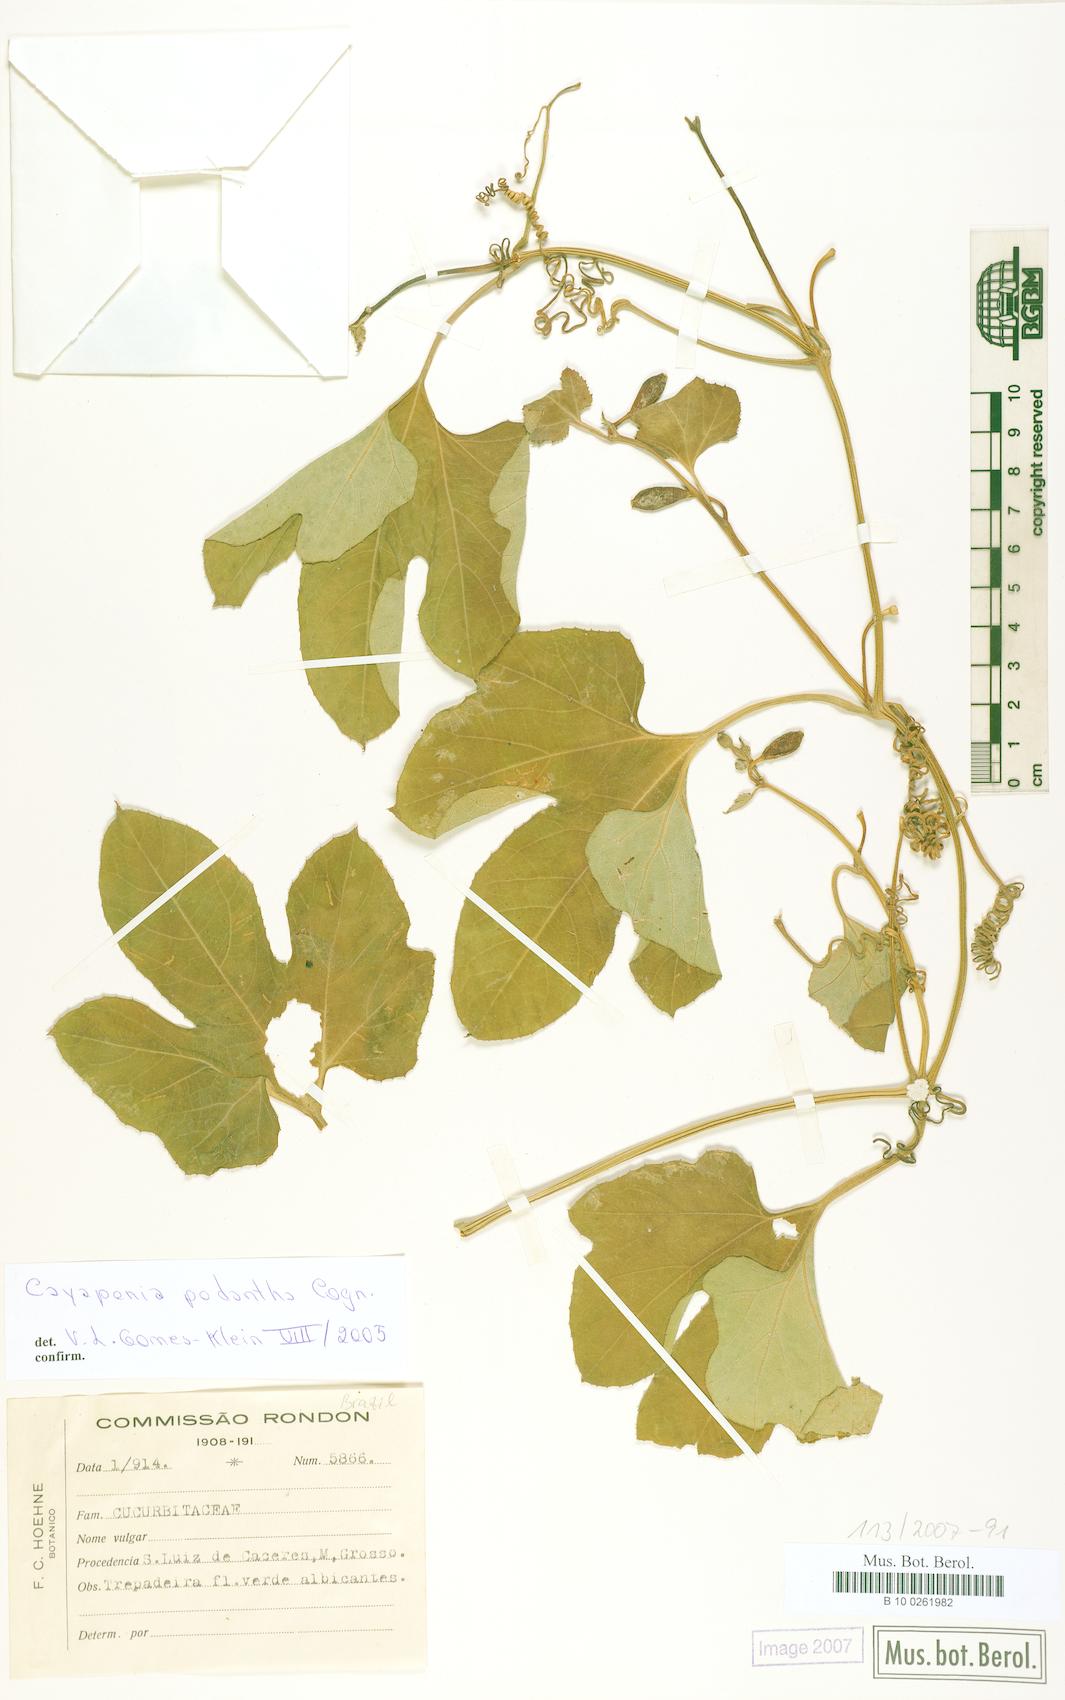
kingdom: Plantae
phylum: Tracheophyta
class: Magnoliopsida
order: Cucurbitales
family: Cucurbitaceae
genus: Cayaponia
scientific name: Cayaponia podantha
